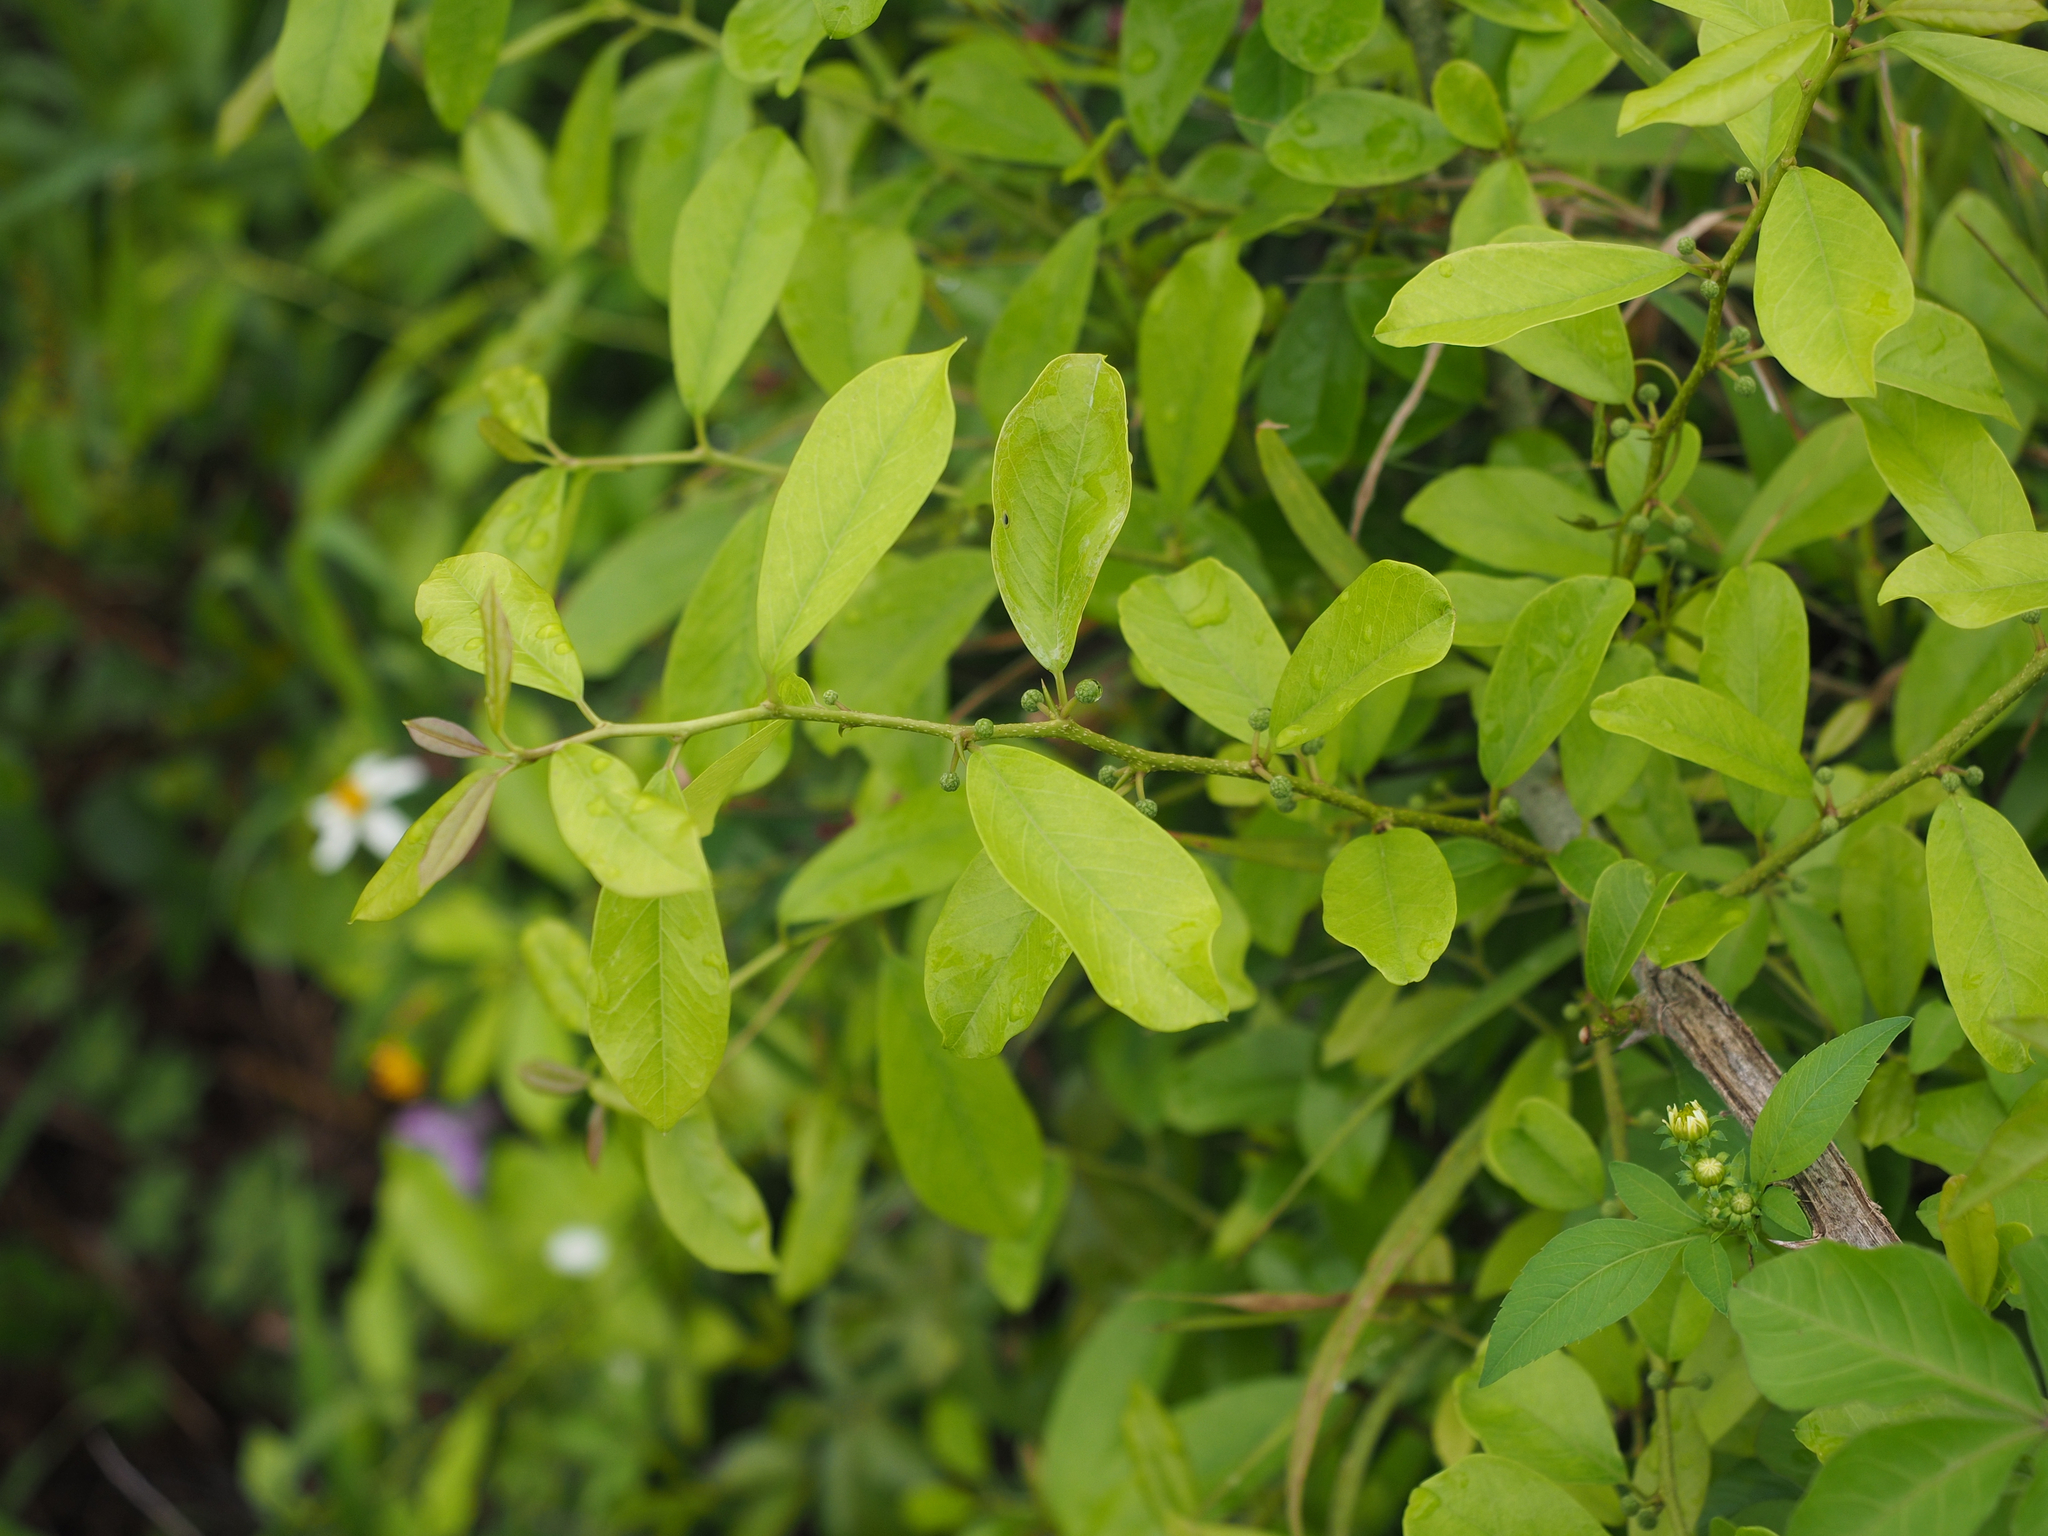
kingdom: Plantae
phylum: Tracheophyta
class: Magnoliopsida
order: Rosales
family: Moraceae
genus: Maclura
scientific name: Maclura cochinchinensis
